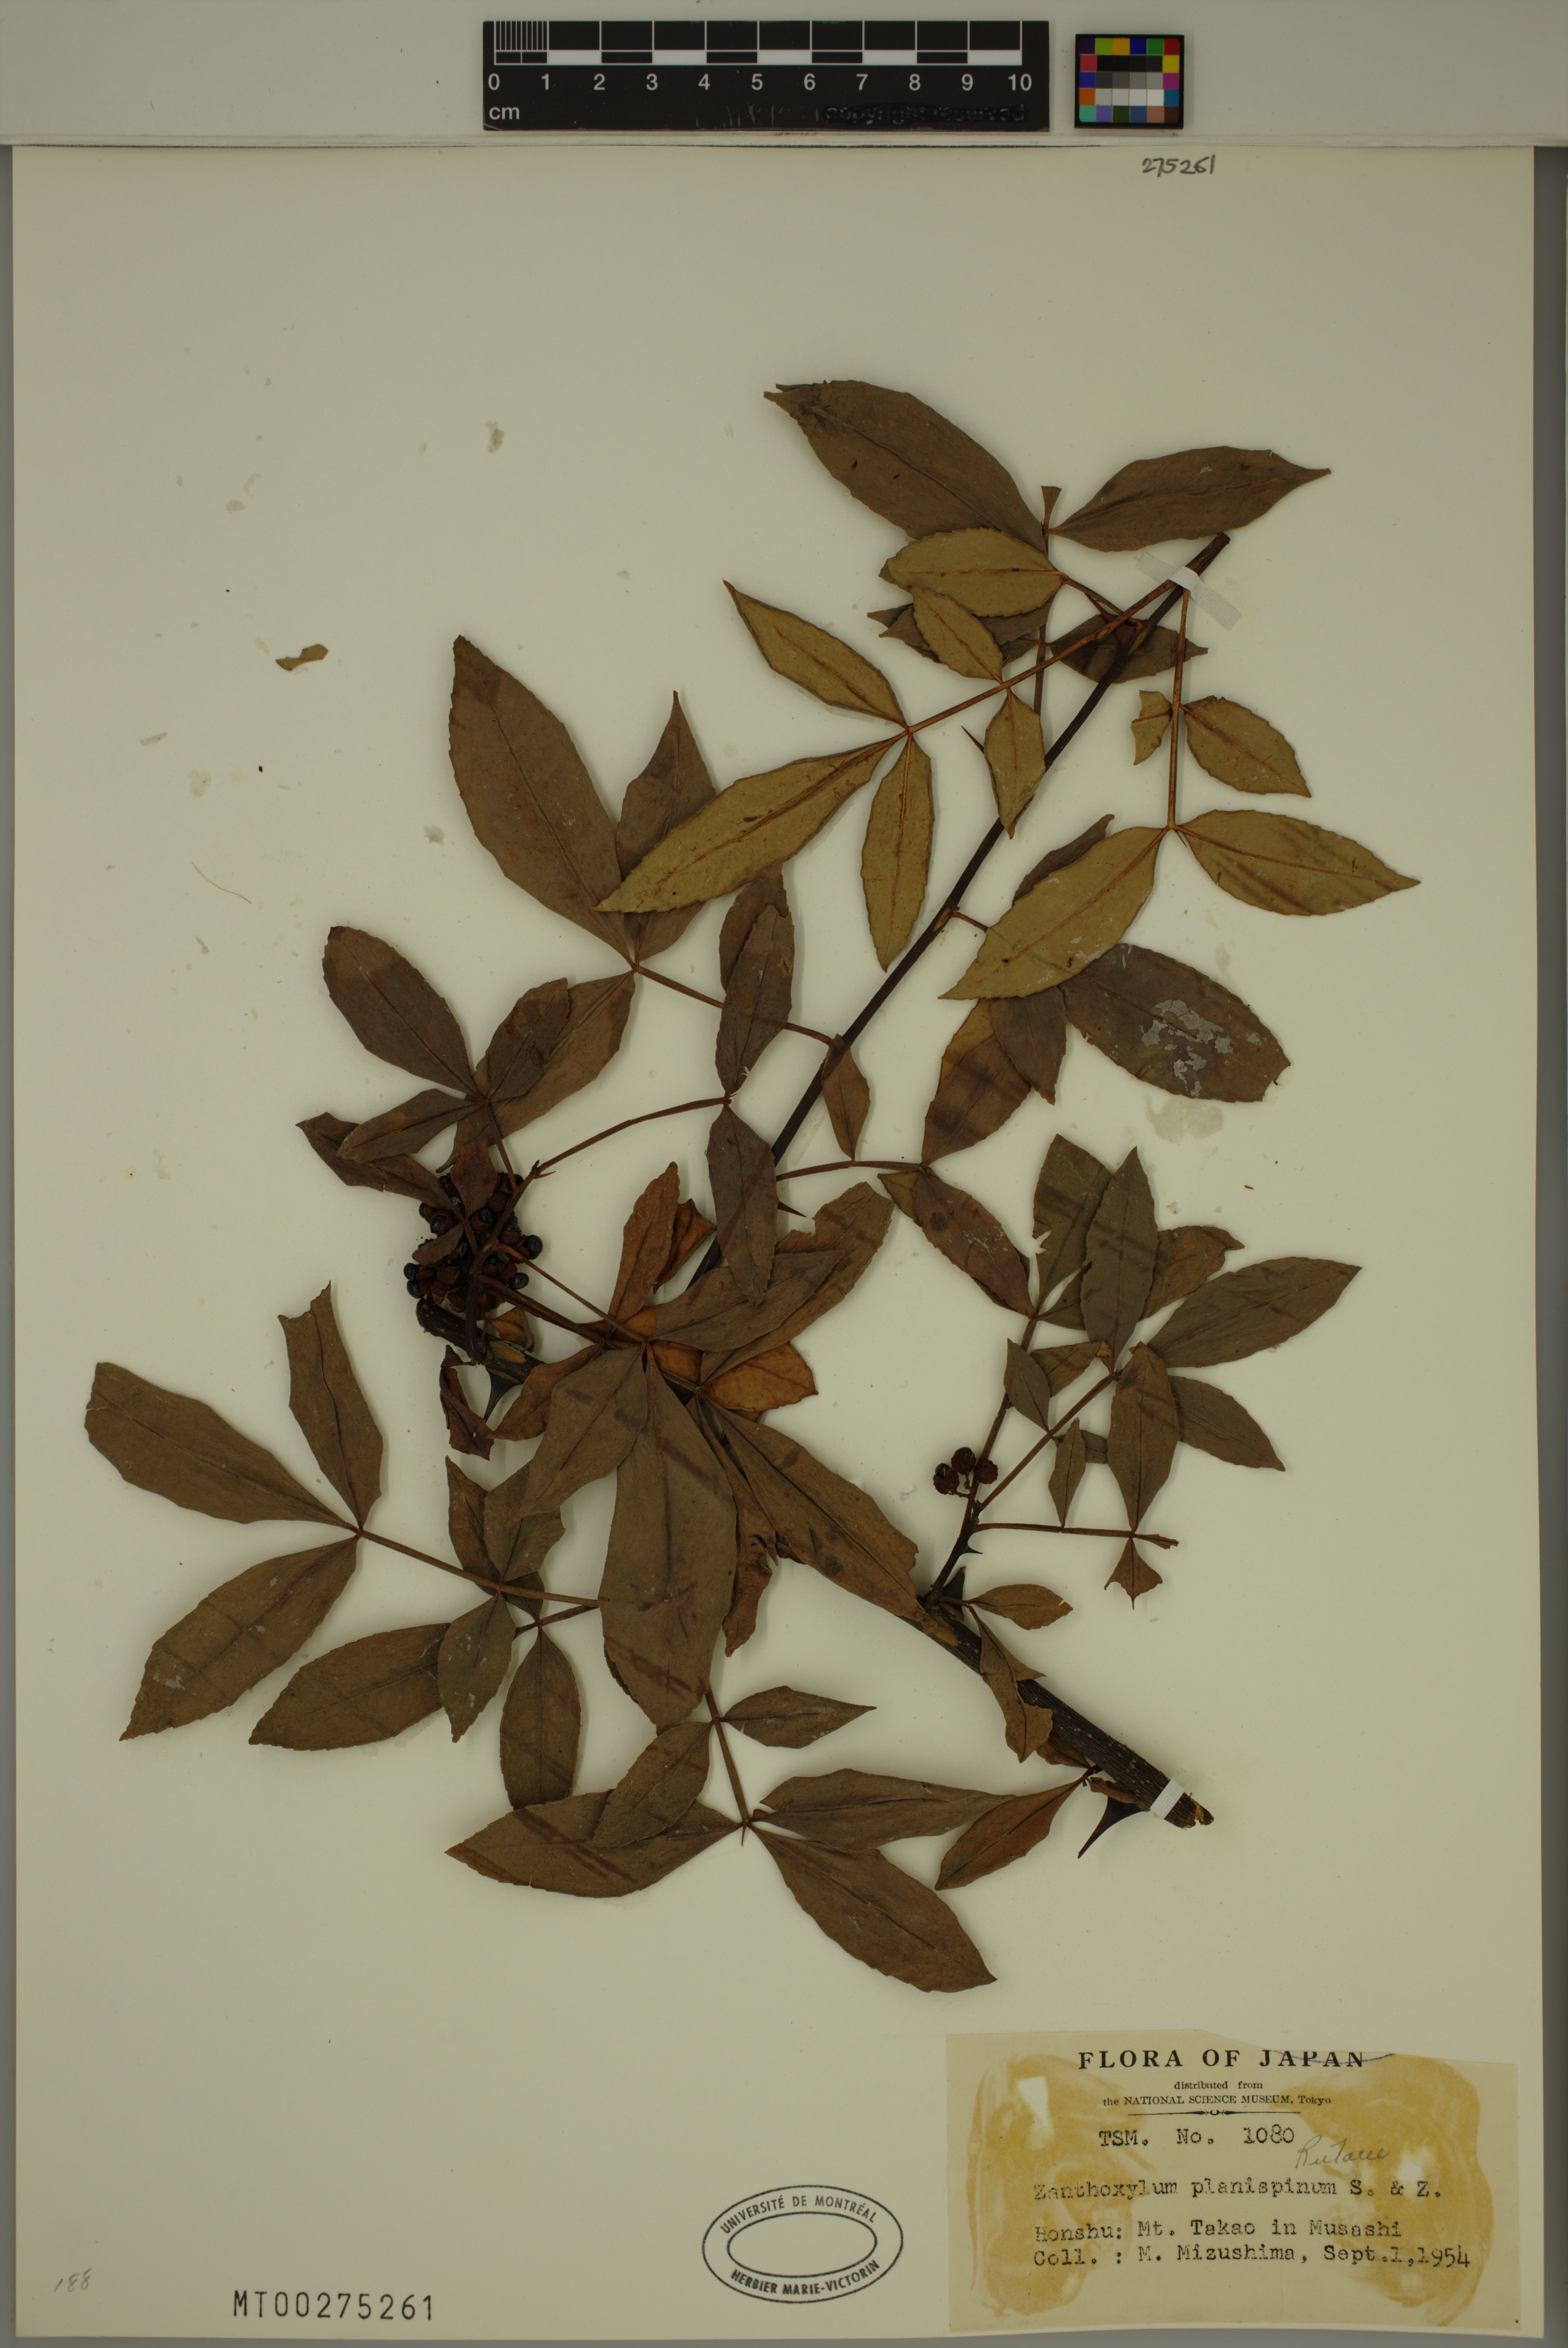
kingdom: Plantae
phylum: Tracheophyta
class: Magnoliopsida
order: Sapindales
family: Rutaceae
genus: Zanthoxylum
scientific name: Zanthoxylum armatum
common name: Winged prickly-ash
